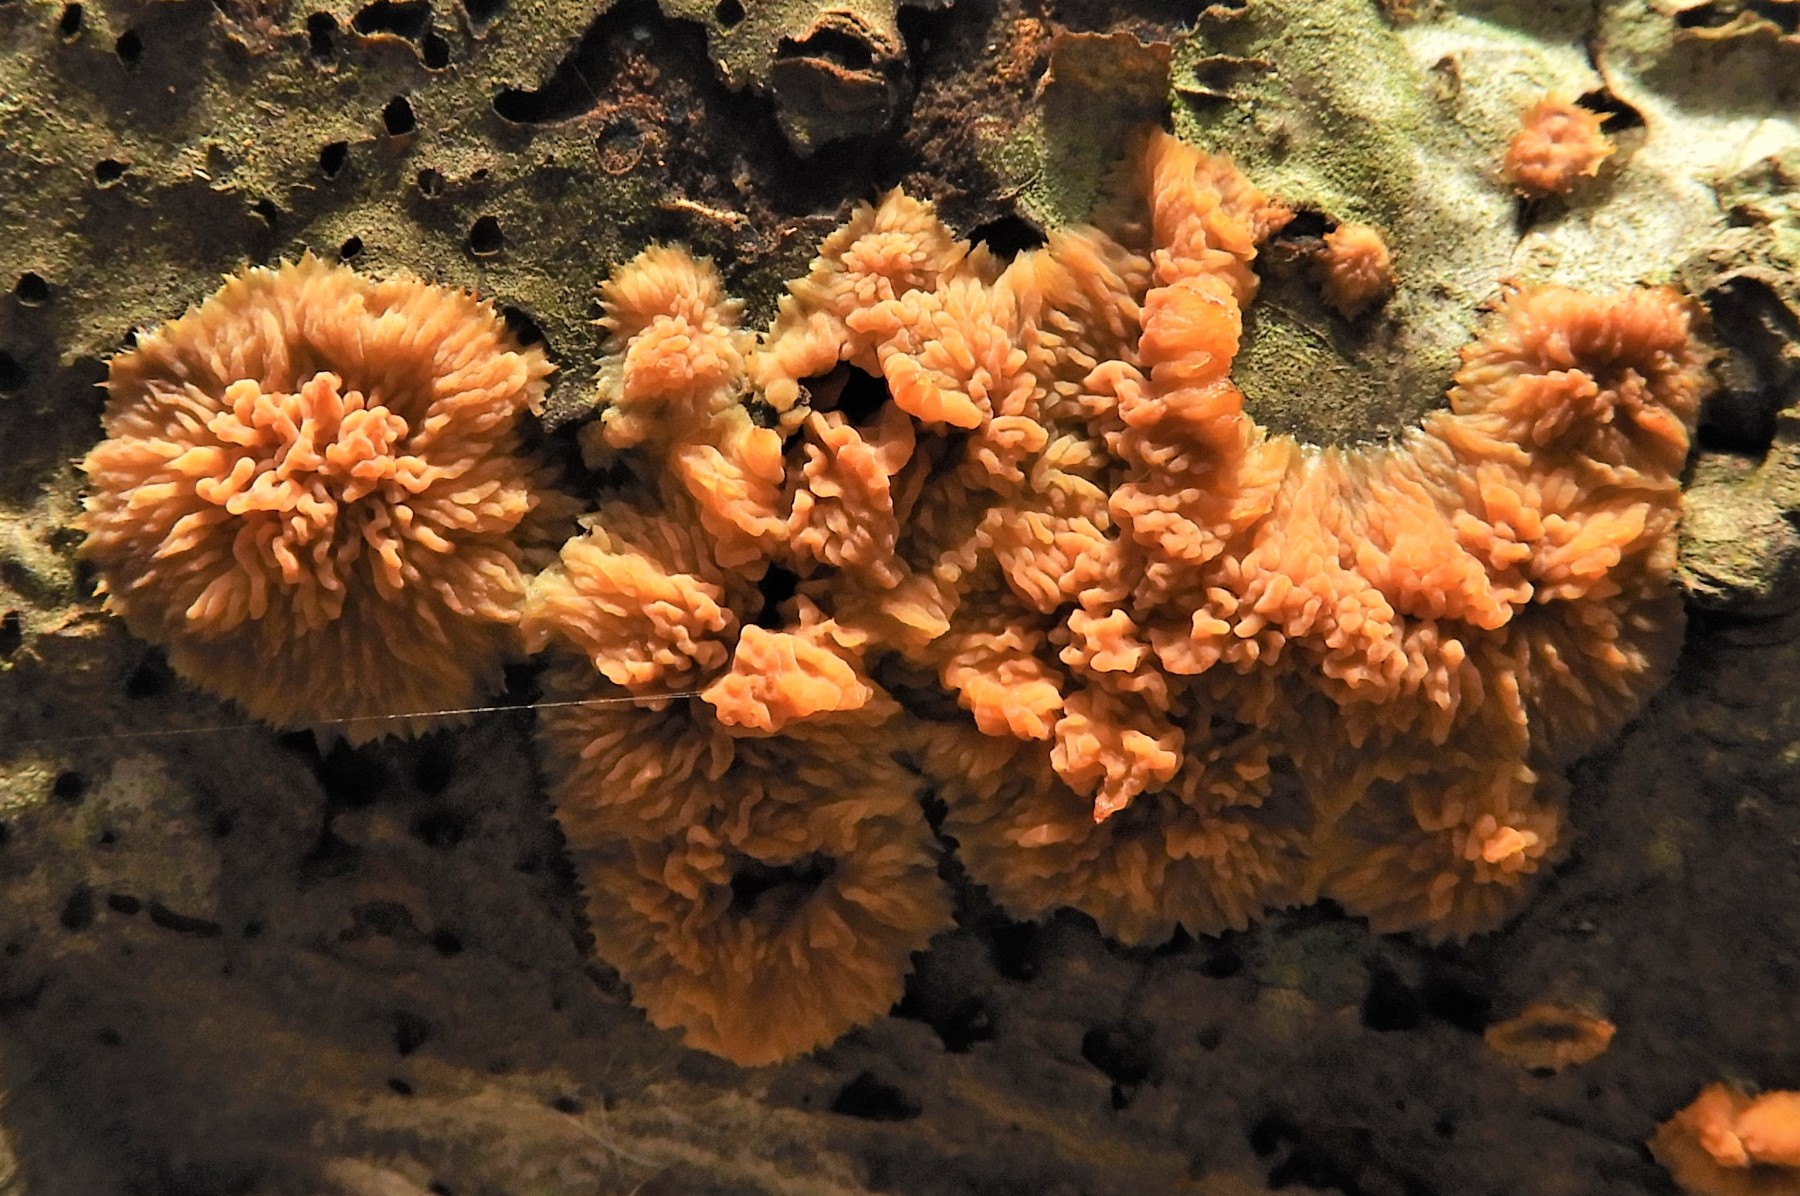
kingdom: Fungi
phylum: Basidiomycota
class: Agaricomycetes
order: Polyporales
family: Meruliaceae
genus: Phlebia
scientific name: Phlebia radiata
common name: stråle-åresvamp
